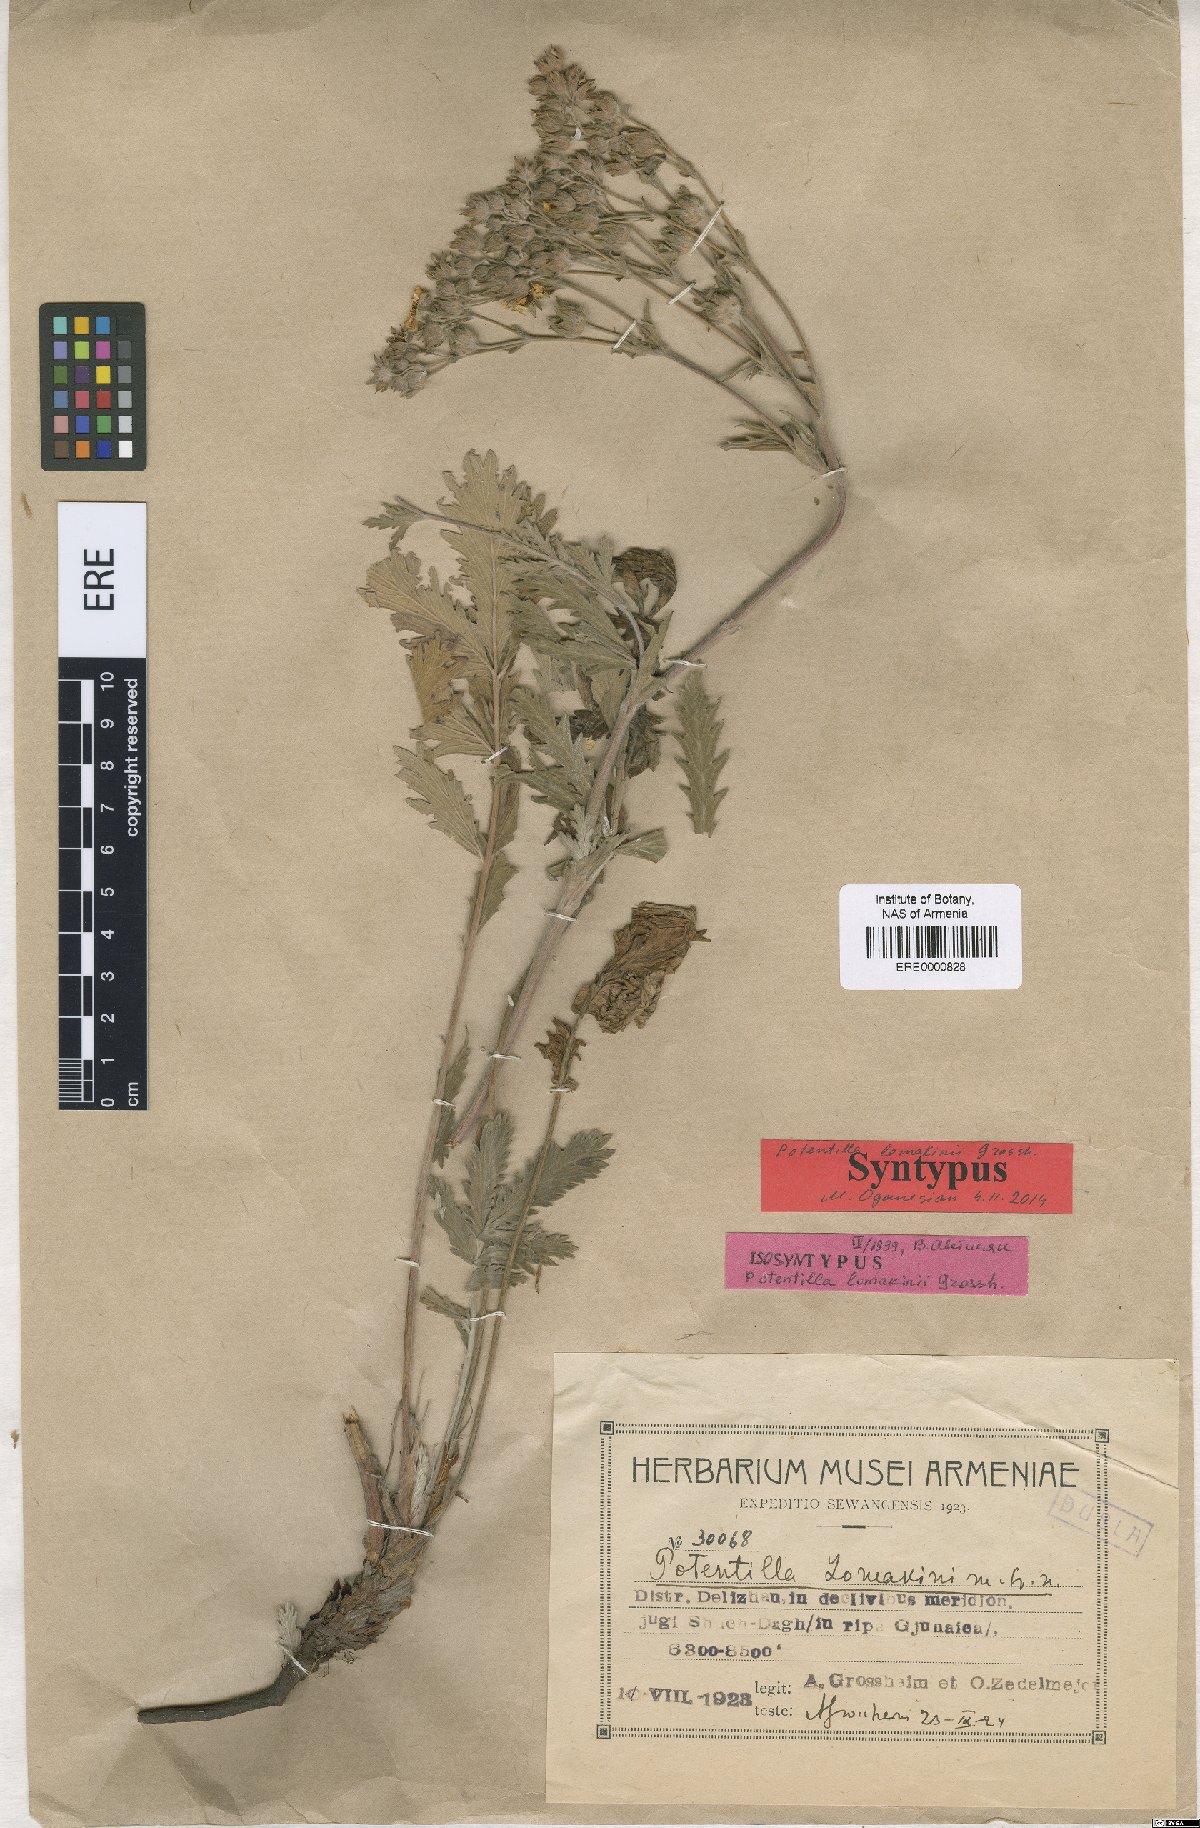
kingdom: Plantae
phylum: Tracheophyta
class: Magnoliopsida
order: Rosales
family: Rosaceae
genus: Potentilla
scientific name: Potentilla lomakinii
